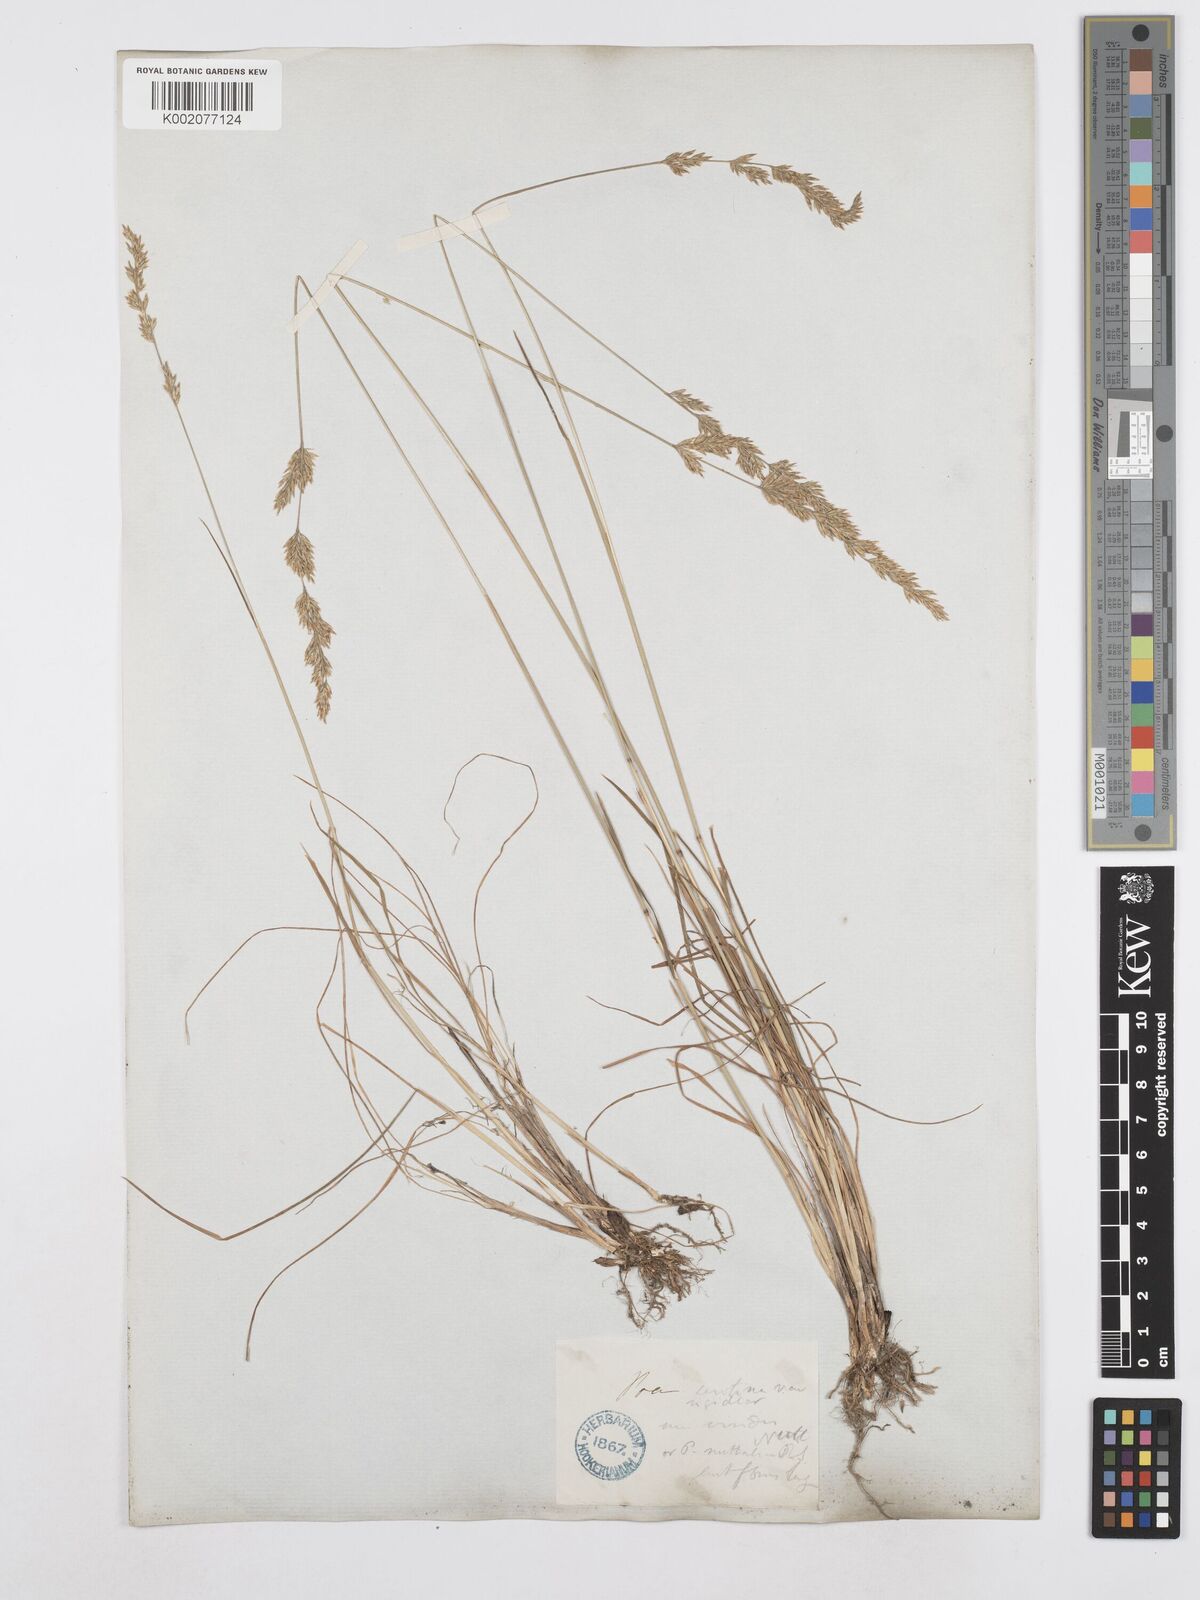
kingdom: Plantae
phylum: Tracheophyta
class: Liliopsida
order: Poales
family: Poaceae
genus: Poa
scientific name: Poa palustris
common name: Swamp meadow-grass
